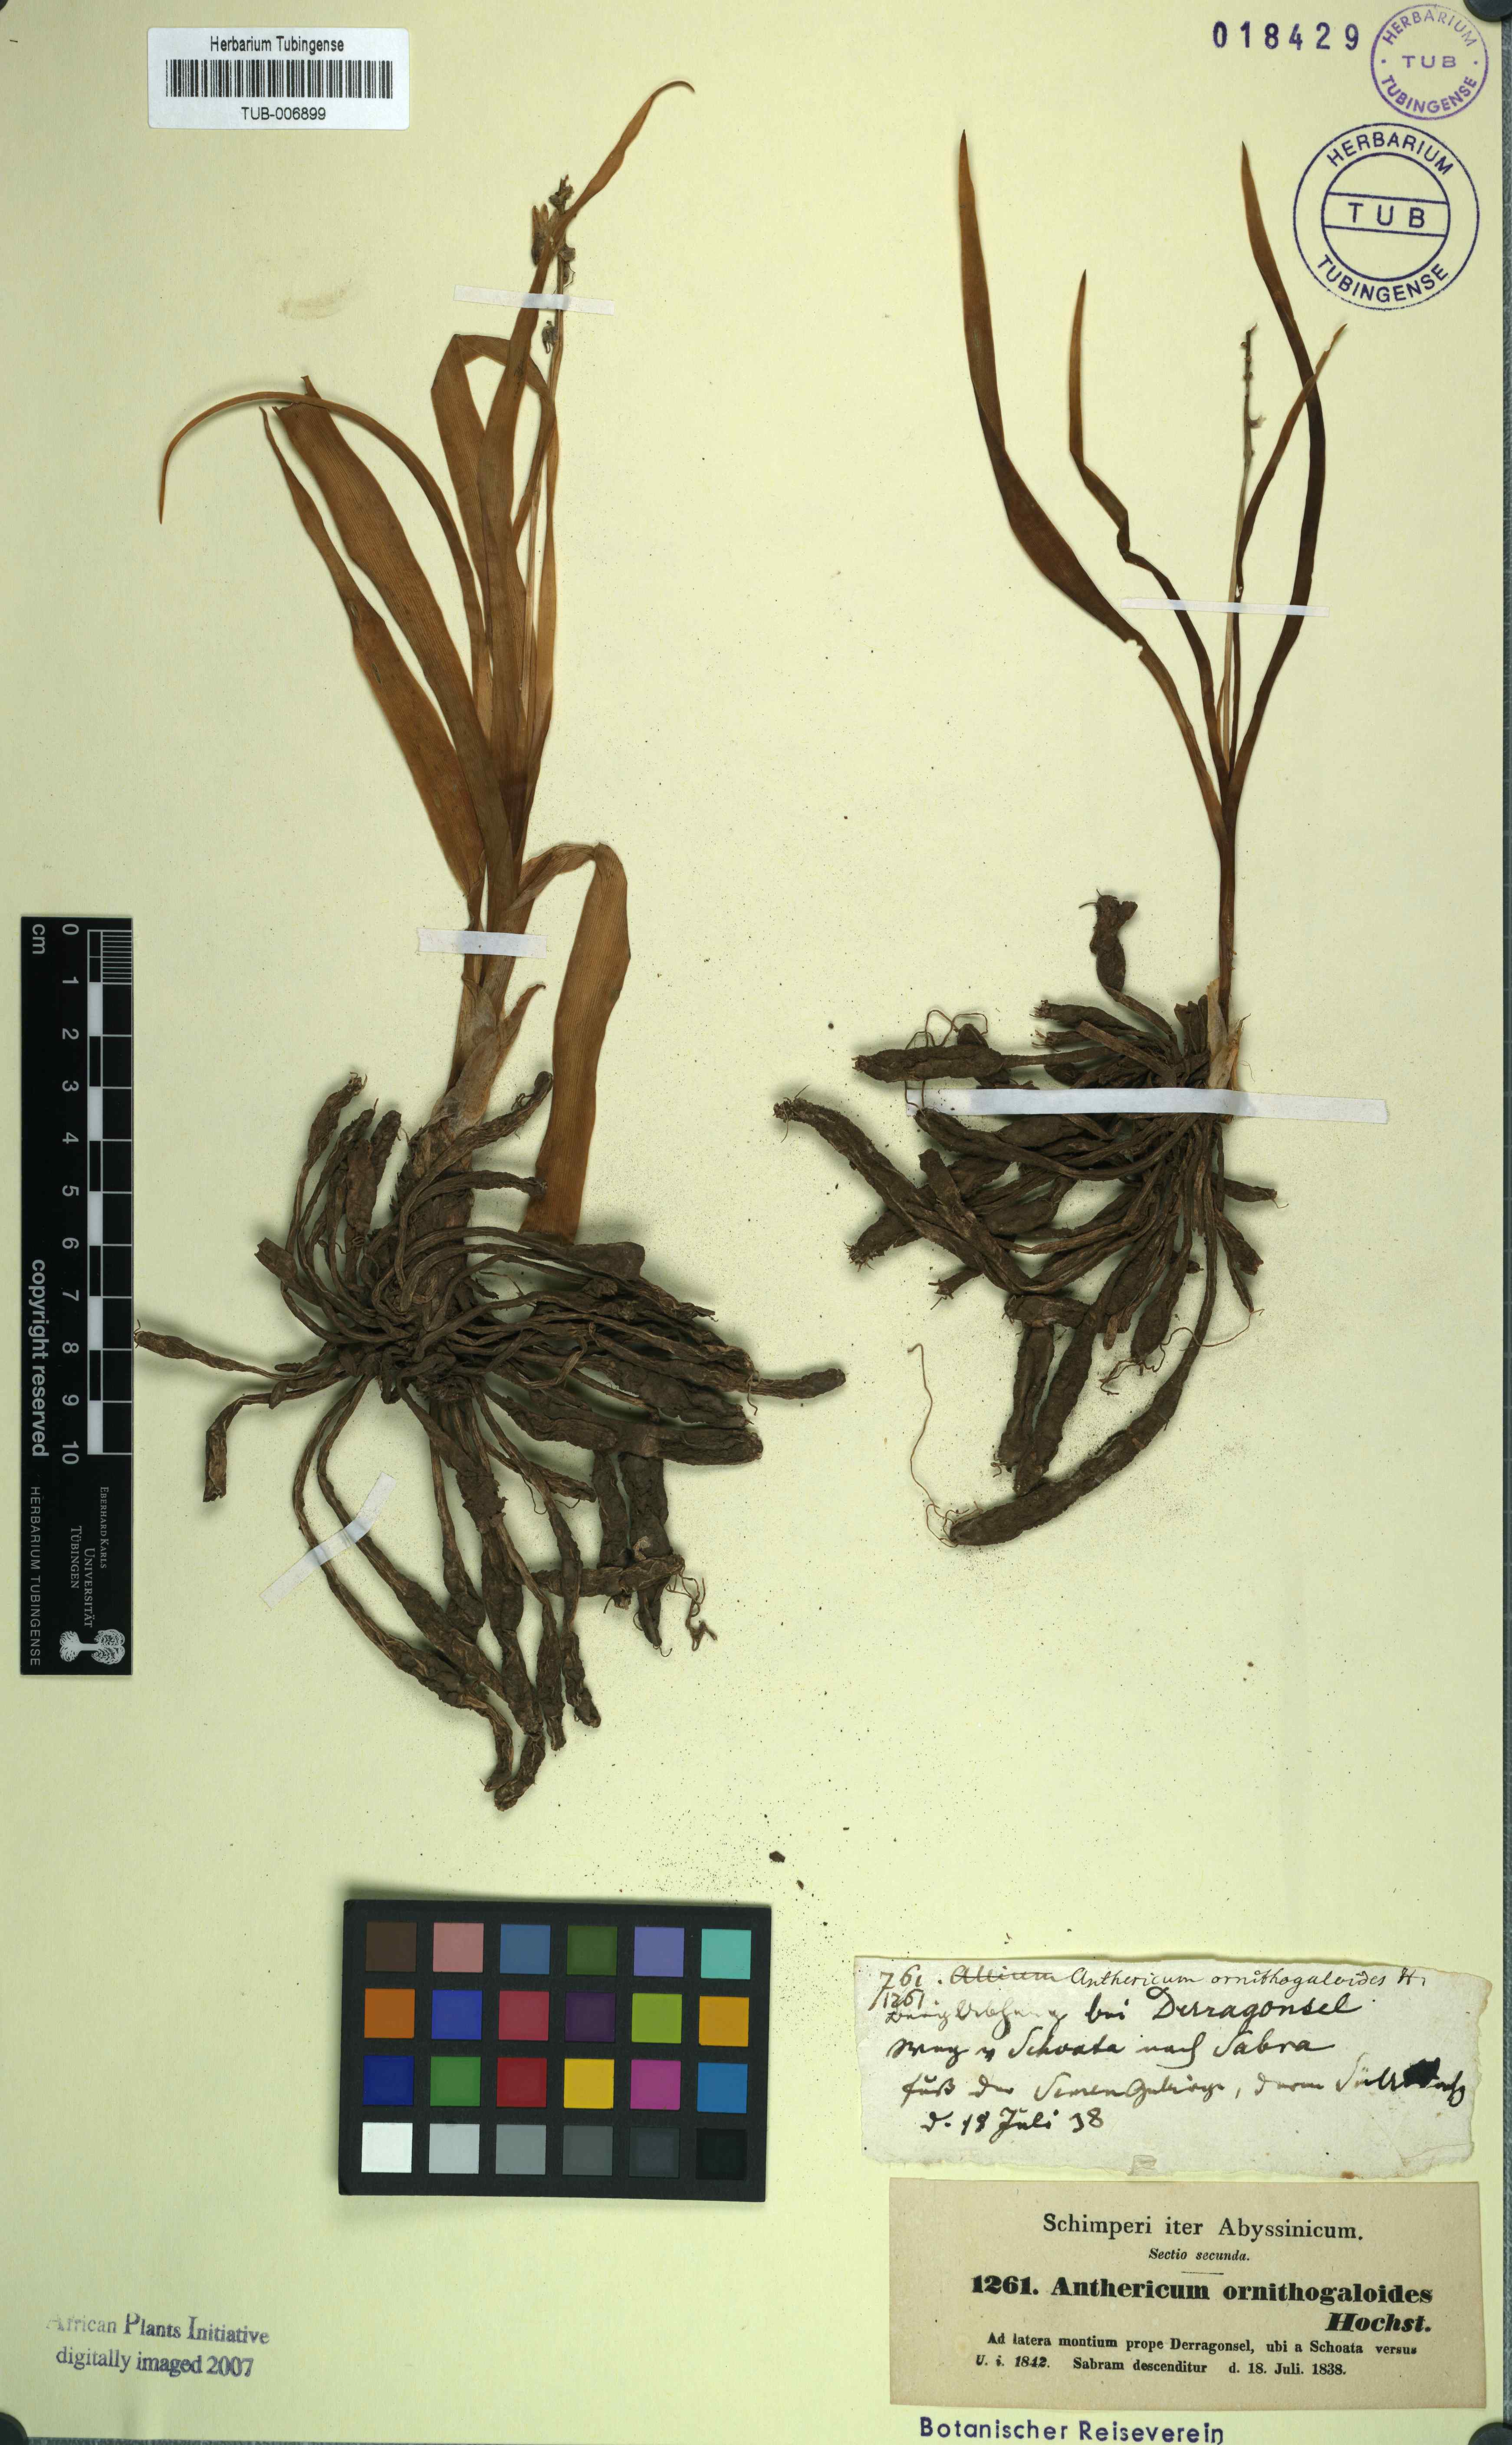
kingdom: Plantae
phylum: Tracheophyta
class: Liliopsida
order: Asparagales
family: Asparagaceae
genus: Chlorophytum
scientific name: Chlorophytum tuberosum
